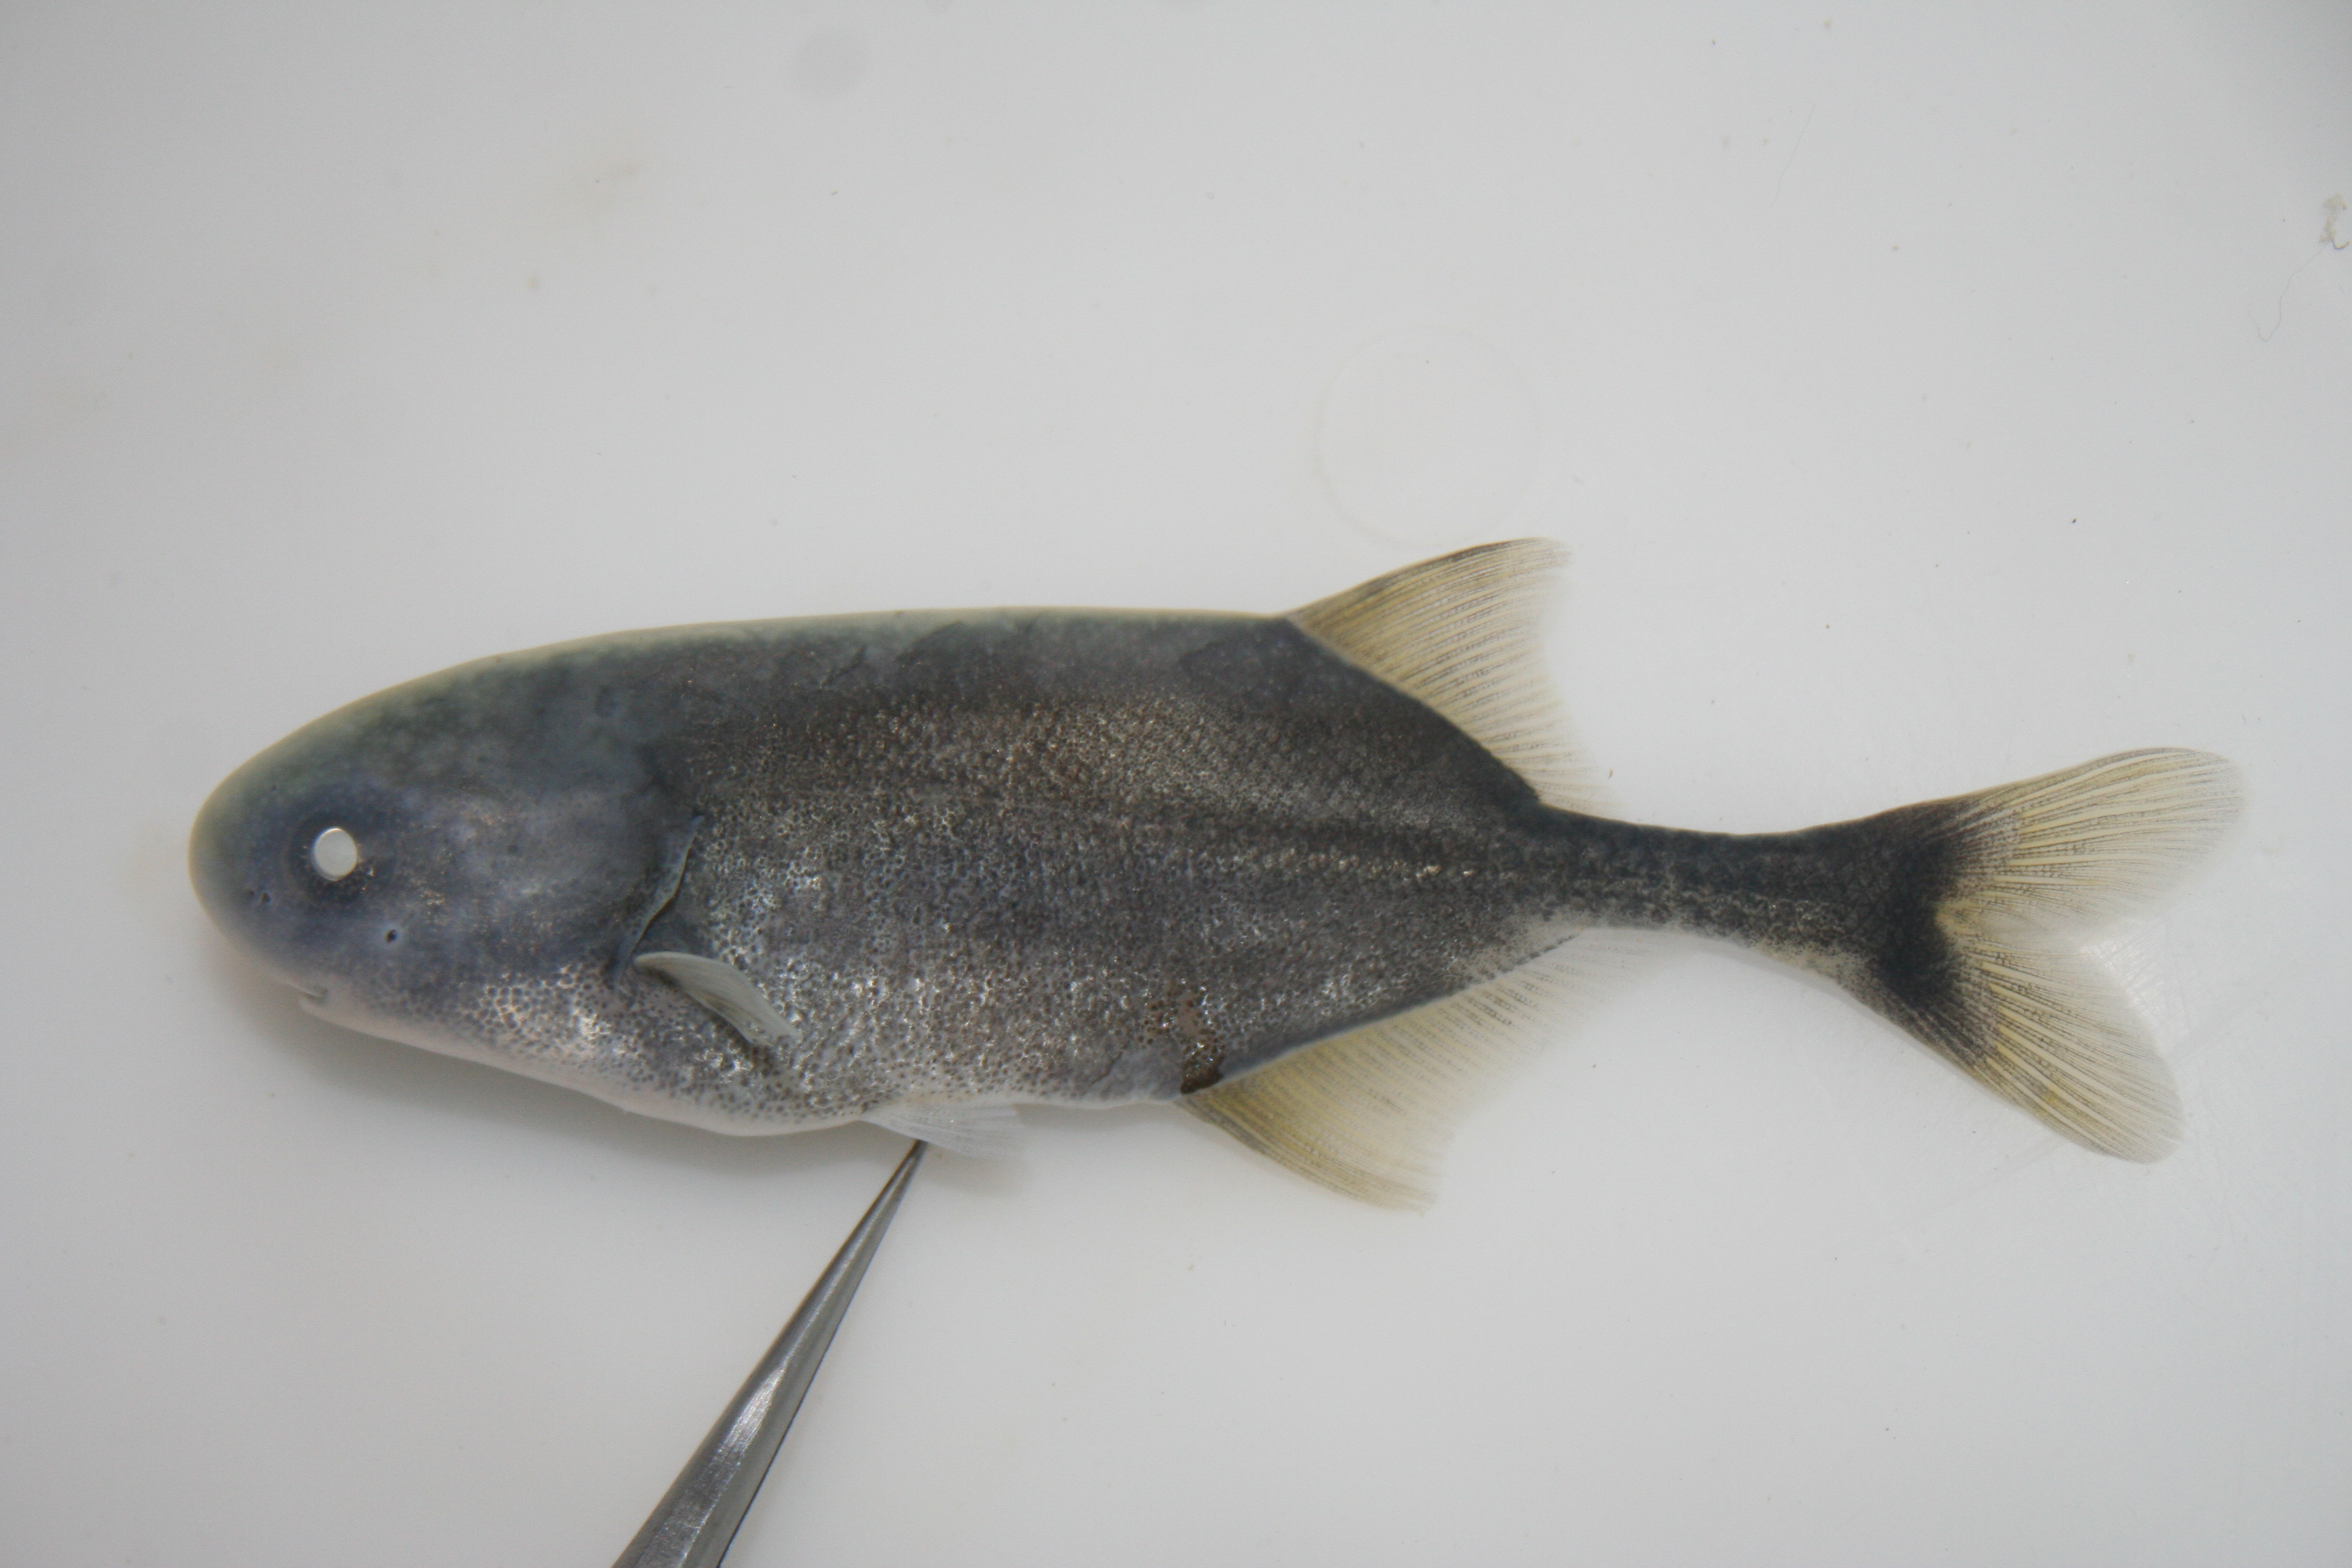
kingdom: Animalia
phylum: Chordata
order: Osteoglossiformes
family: Mormyridae
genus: Petrocephalus
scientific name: Petrocephalus
